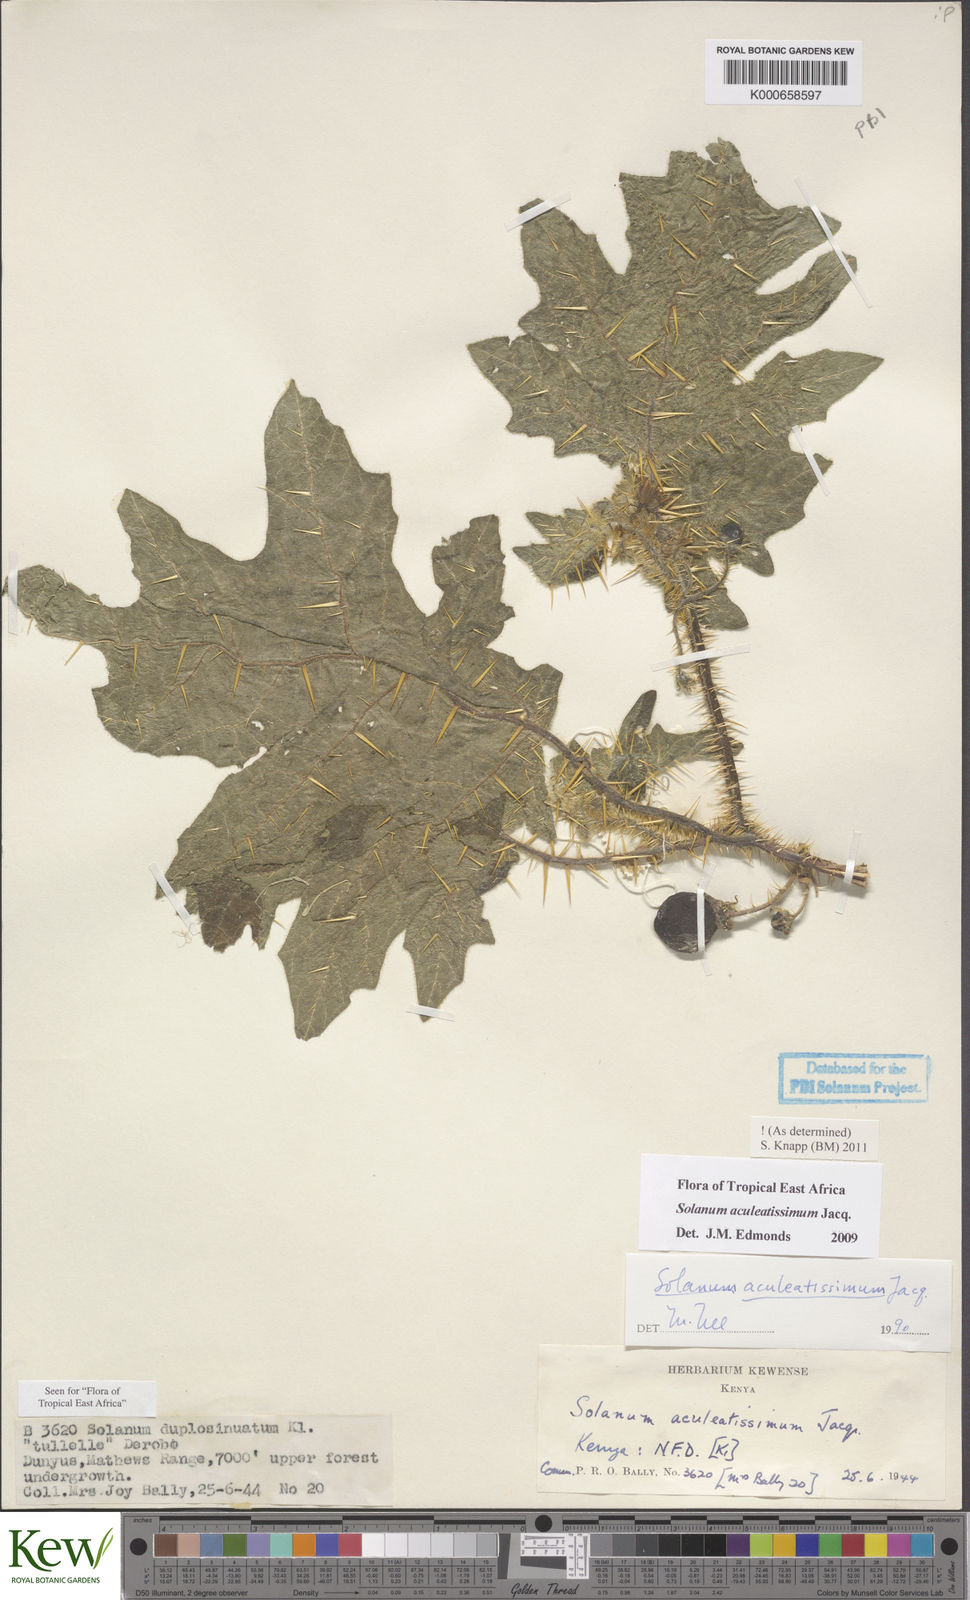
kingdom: Plantae
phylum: Tracheophyta
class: Magnoliopsida
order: Solanales
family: Solanaceae
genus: Solanum
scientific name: Solanum aculeatissimum
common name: Dutch eggplant
